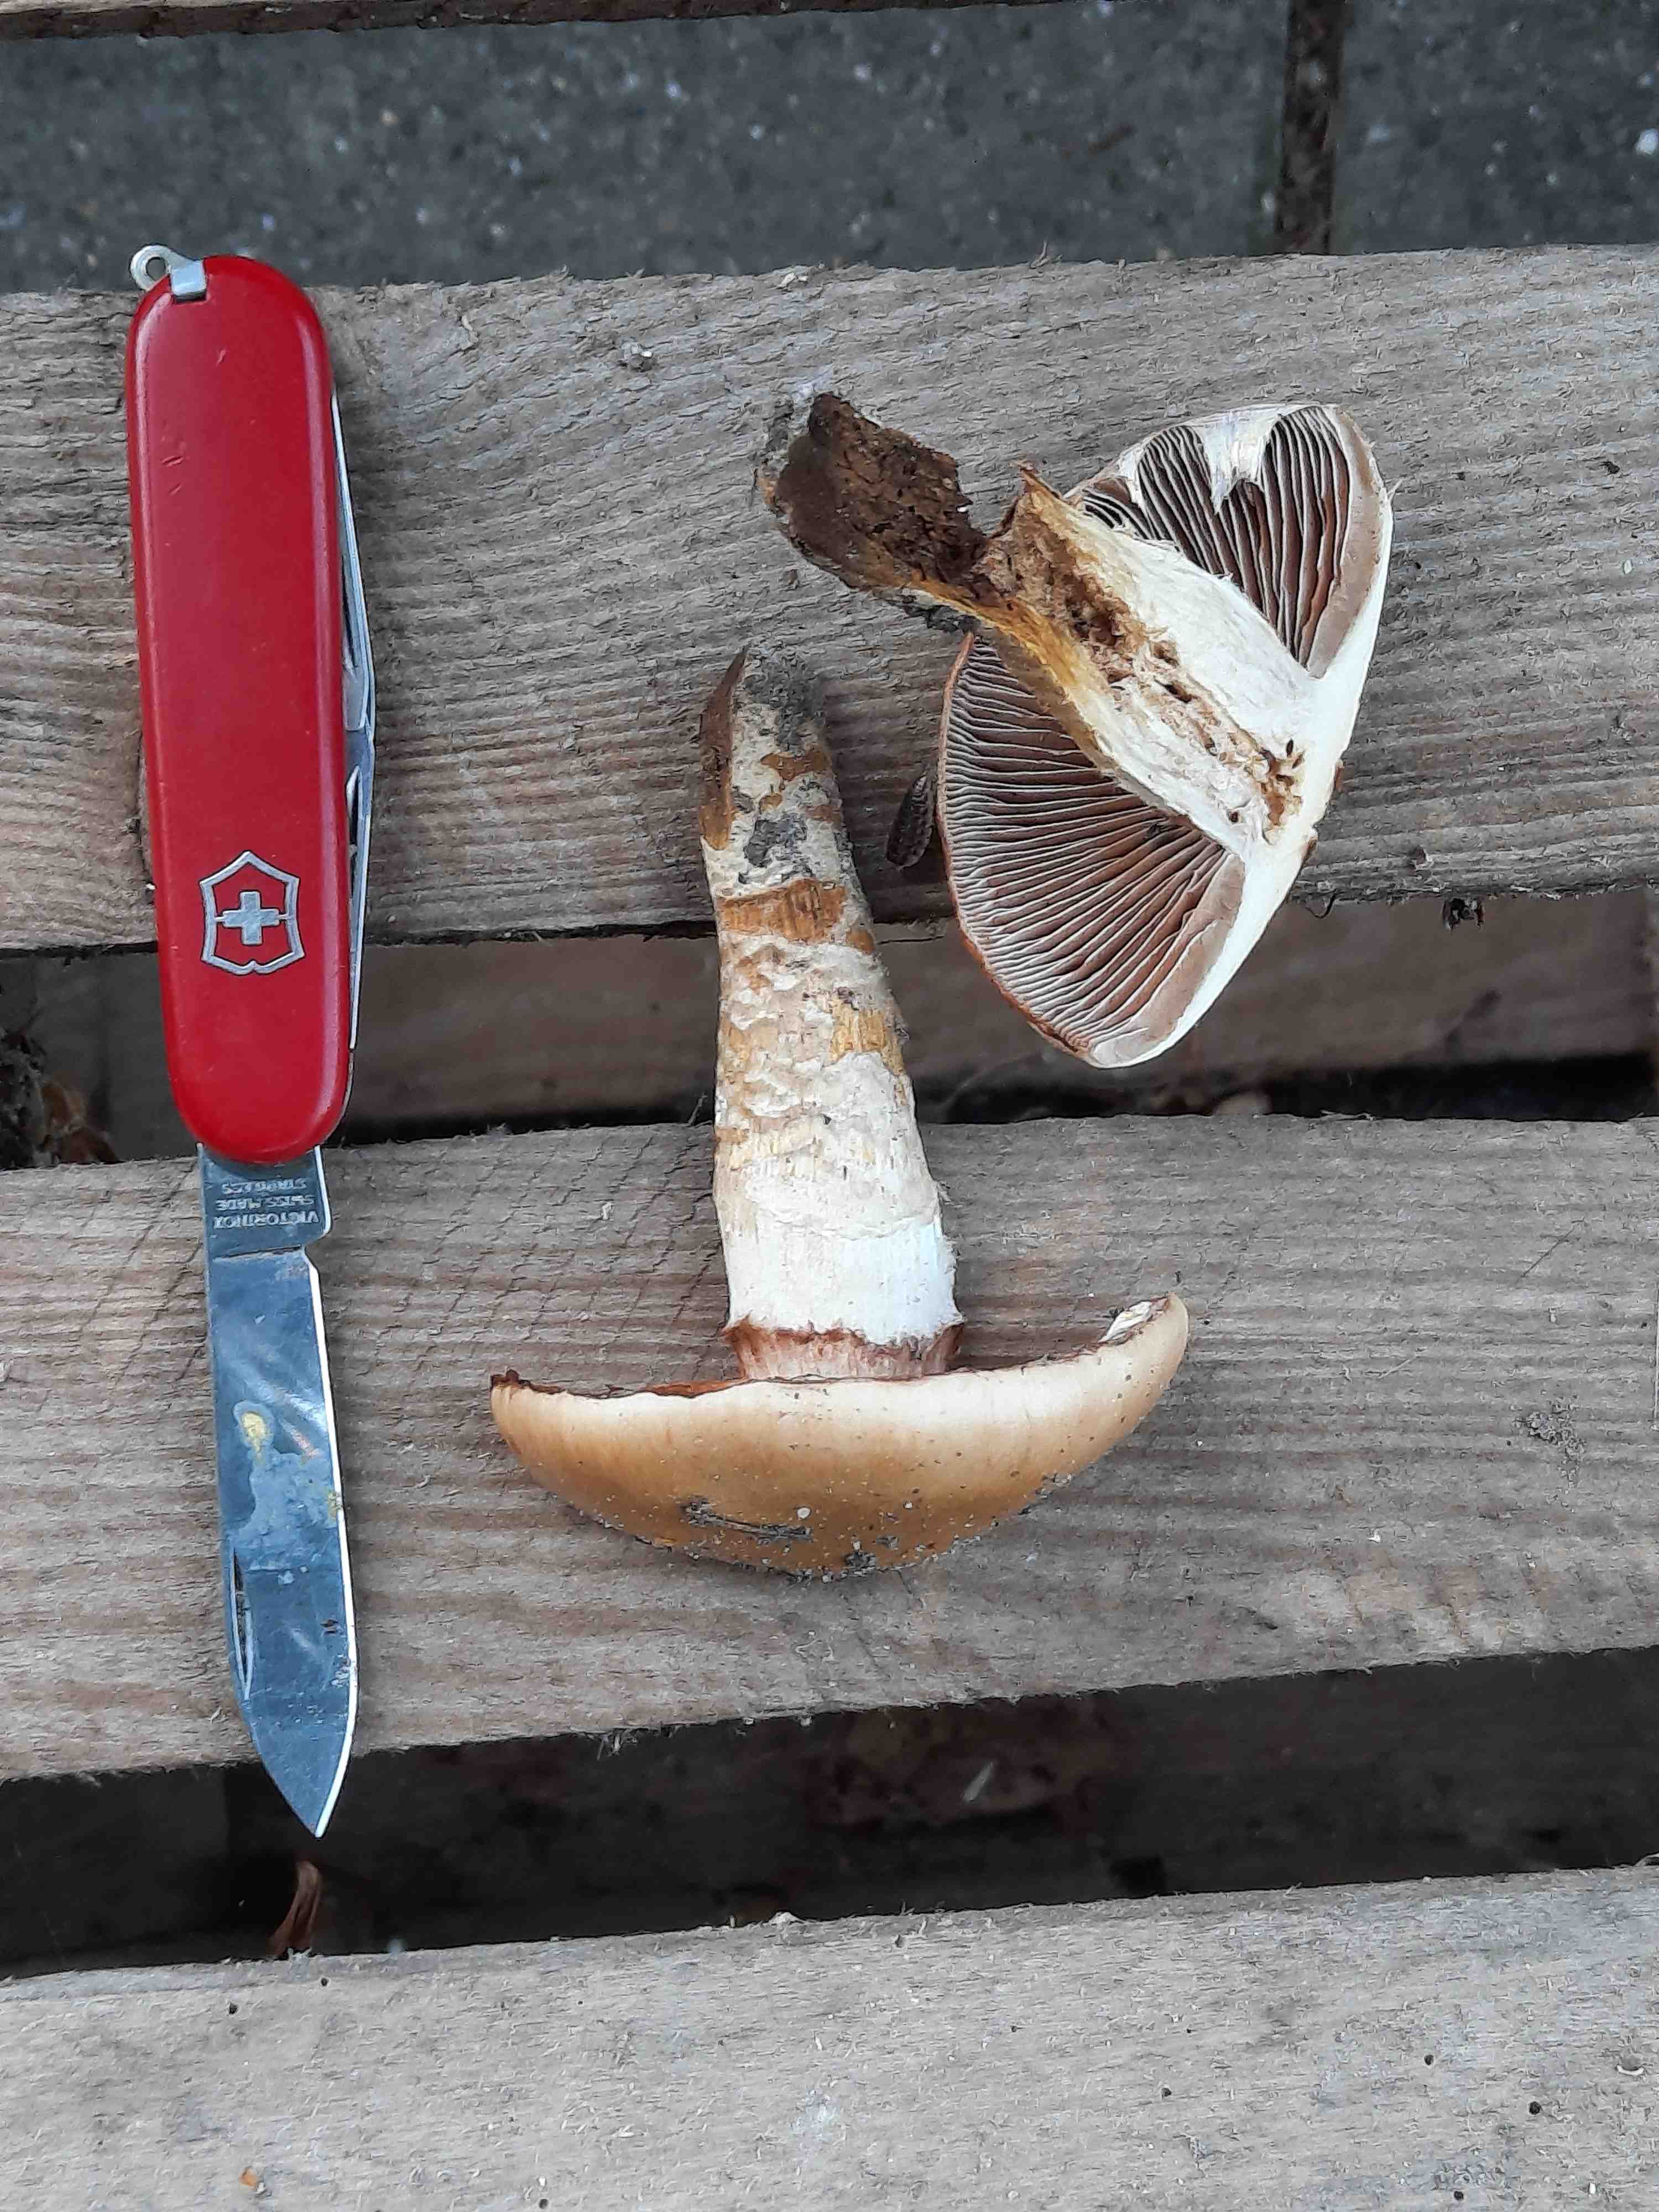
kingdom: Fungi
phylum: Basidiomycota
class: Agaricomycetes
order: Agaricales
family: Cortinariaceae
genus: Cortinarius
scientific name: Cortinarius trivialis
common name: brunslimet slørhat
